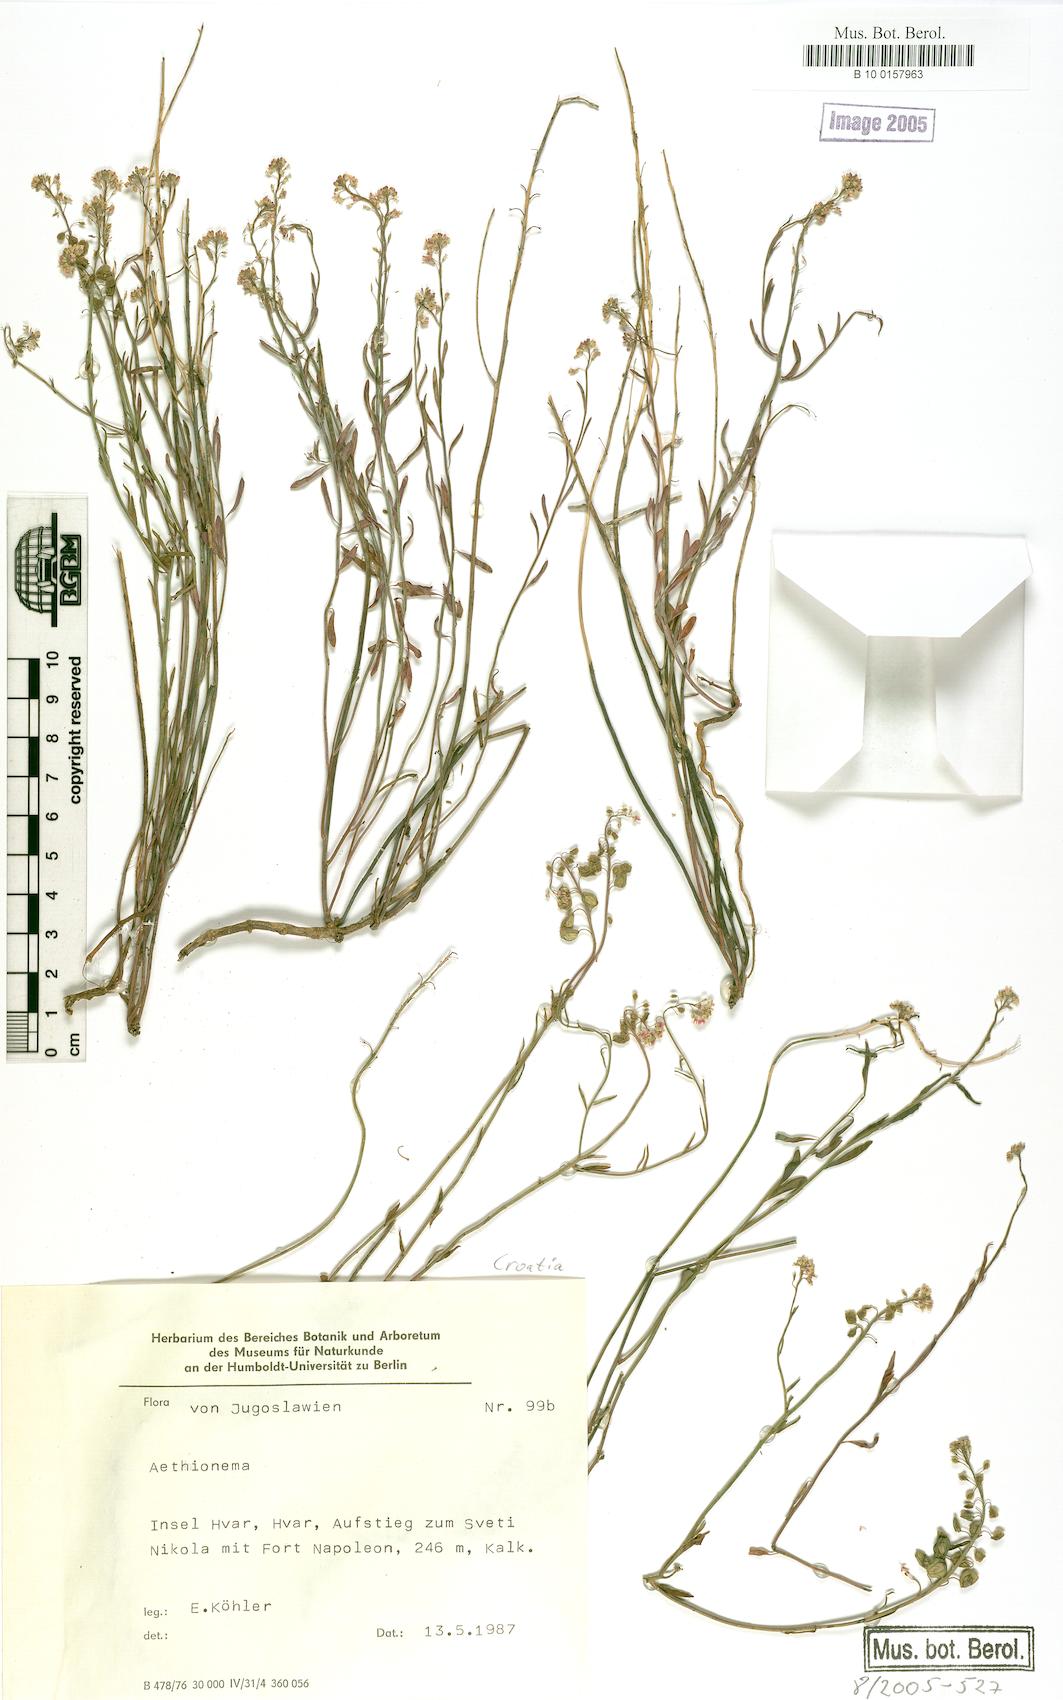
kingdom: Plantae
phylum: Tracheophyta
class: Magnoliopsida
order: Brassicales
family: Brassicaceae
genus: Aethionema
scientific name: Aethionema
